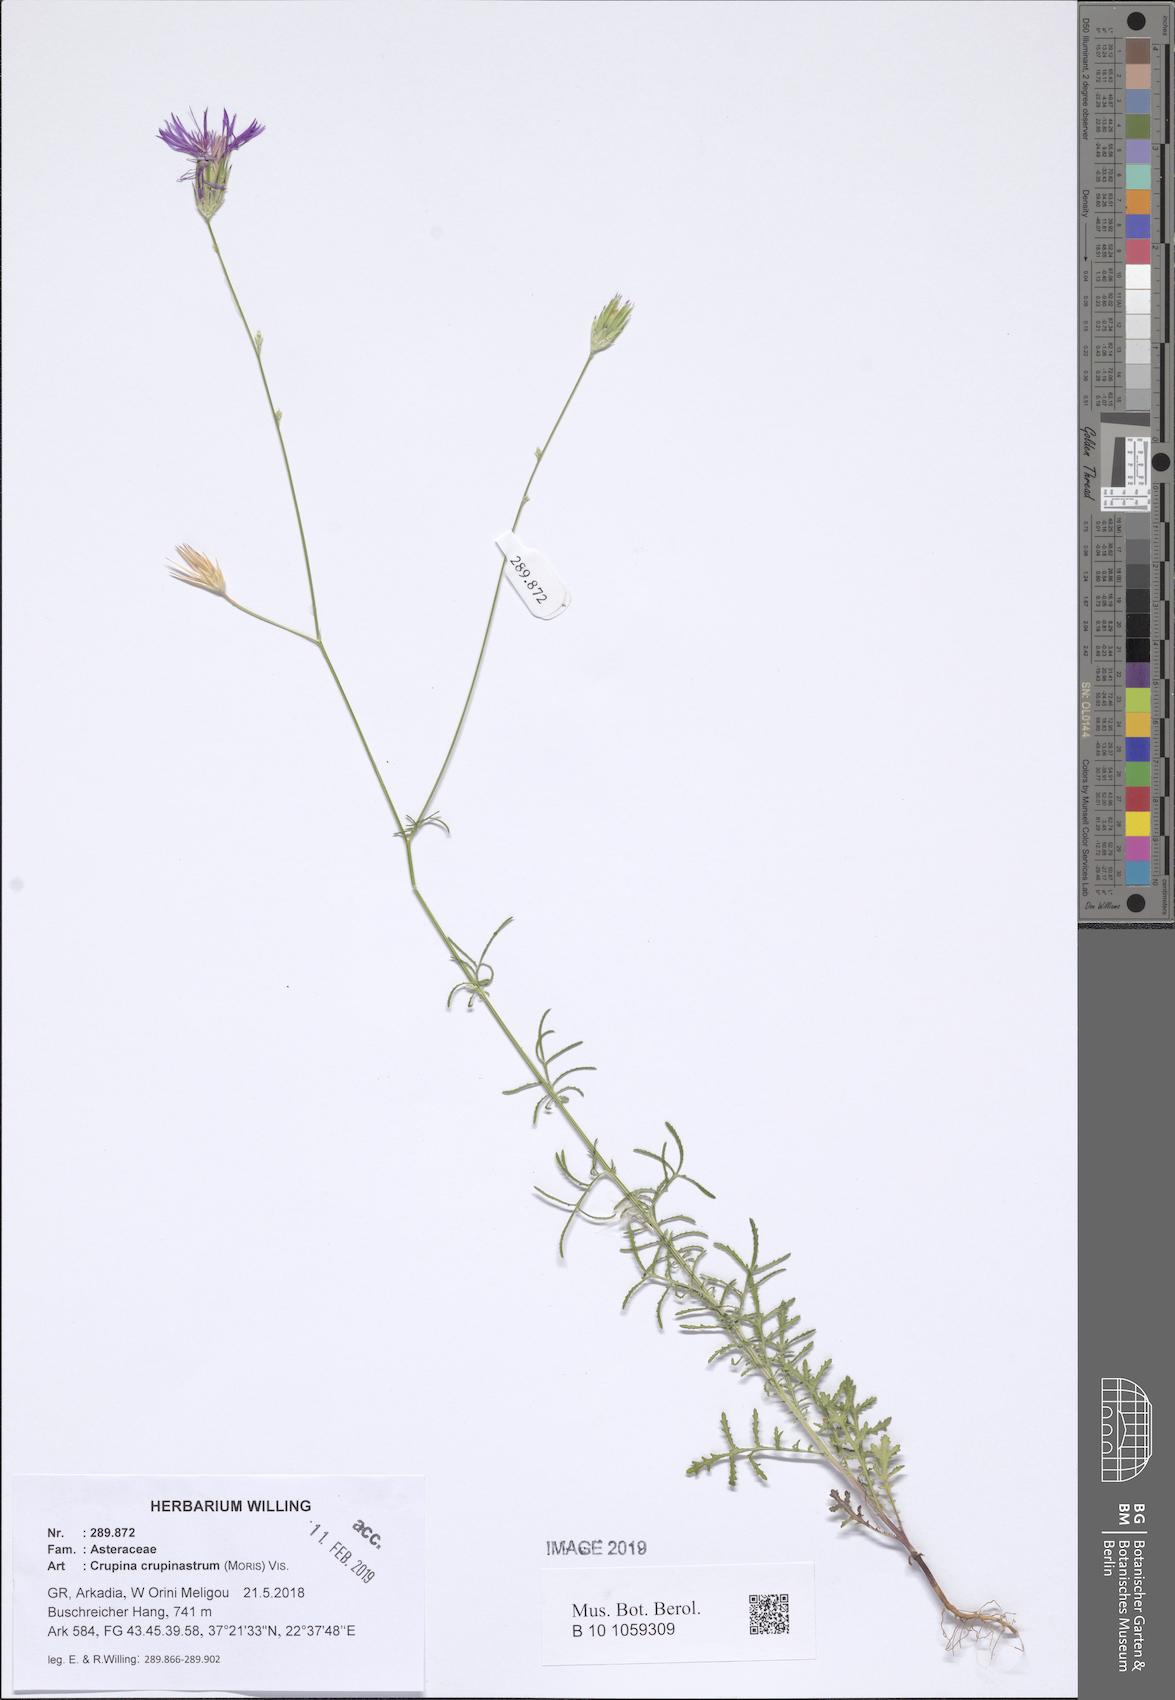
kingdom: Plantae
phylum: Tracheophyta
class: Magnoliopsida
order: Asterales
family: Asteraceae
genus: Crupina
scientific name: Crupina crupinastrum
